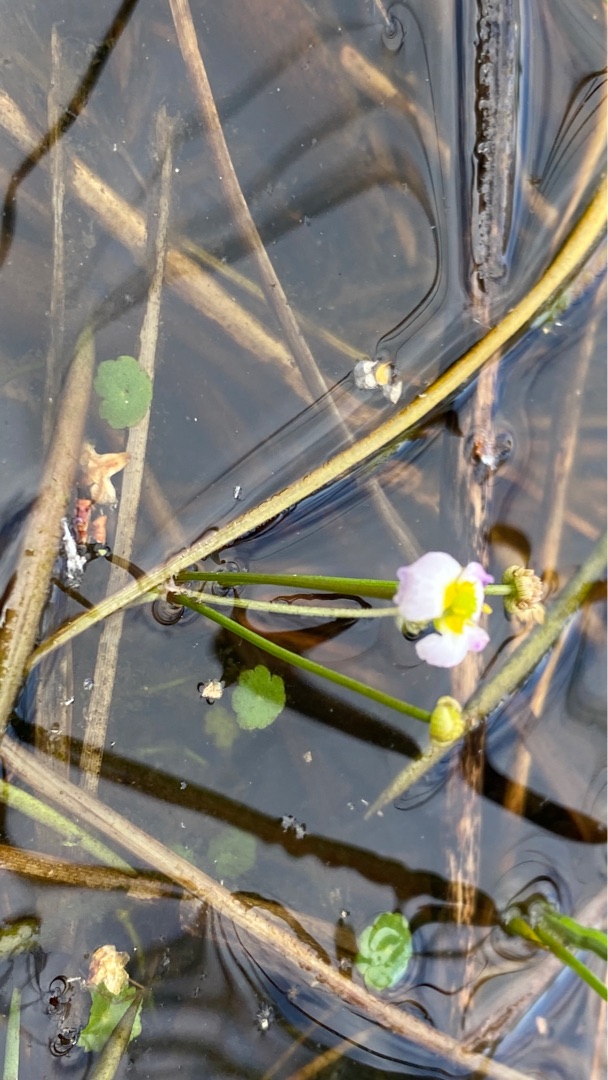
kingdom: Plantae
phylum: Tracheophyta
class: Liliopsida
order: Alismatales
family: Alismataceae
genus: Baldellia
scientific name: Baldellia ranunculoides
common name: Søpryd
